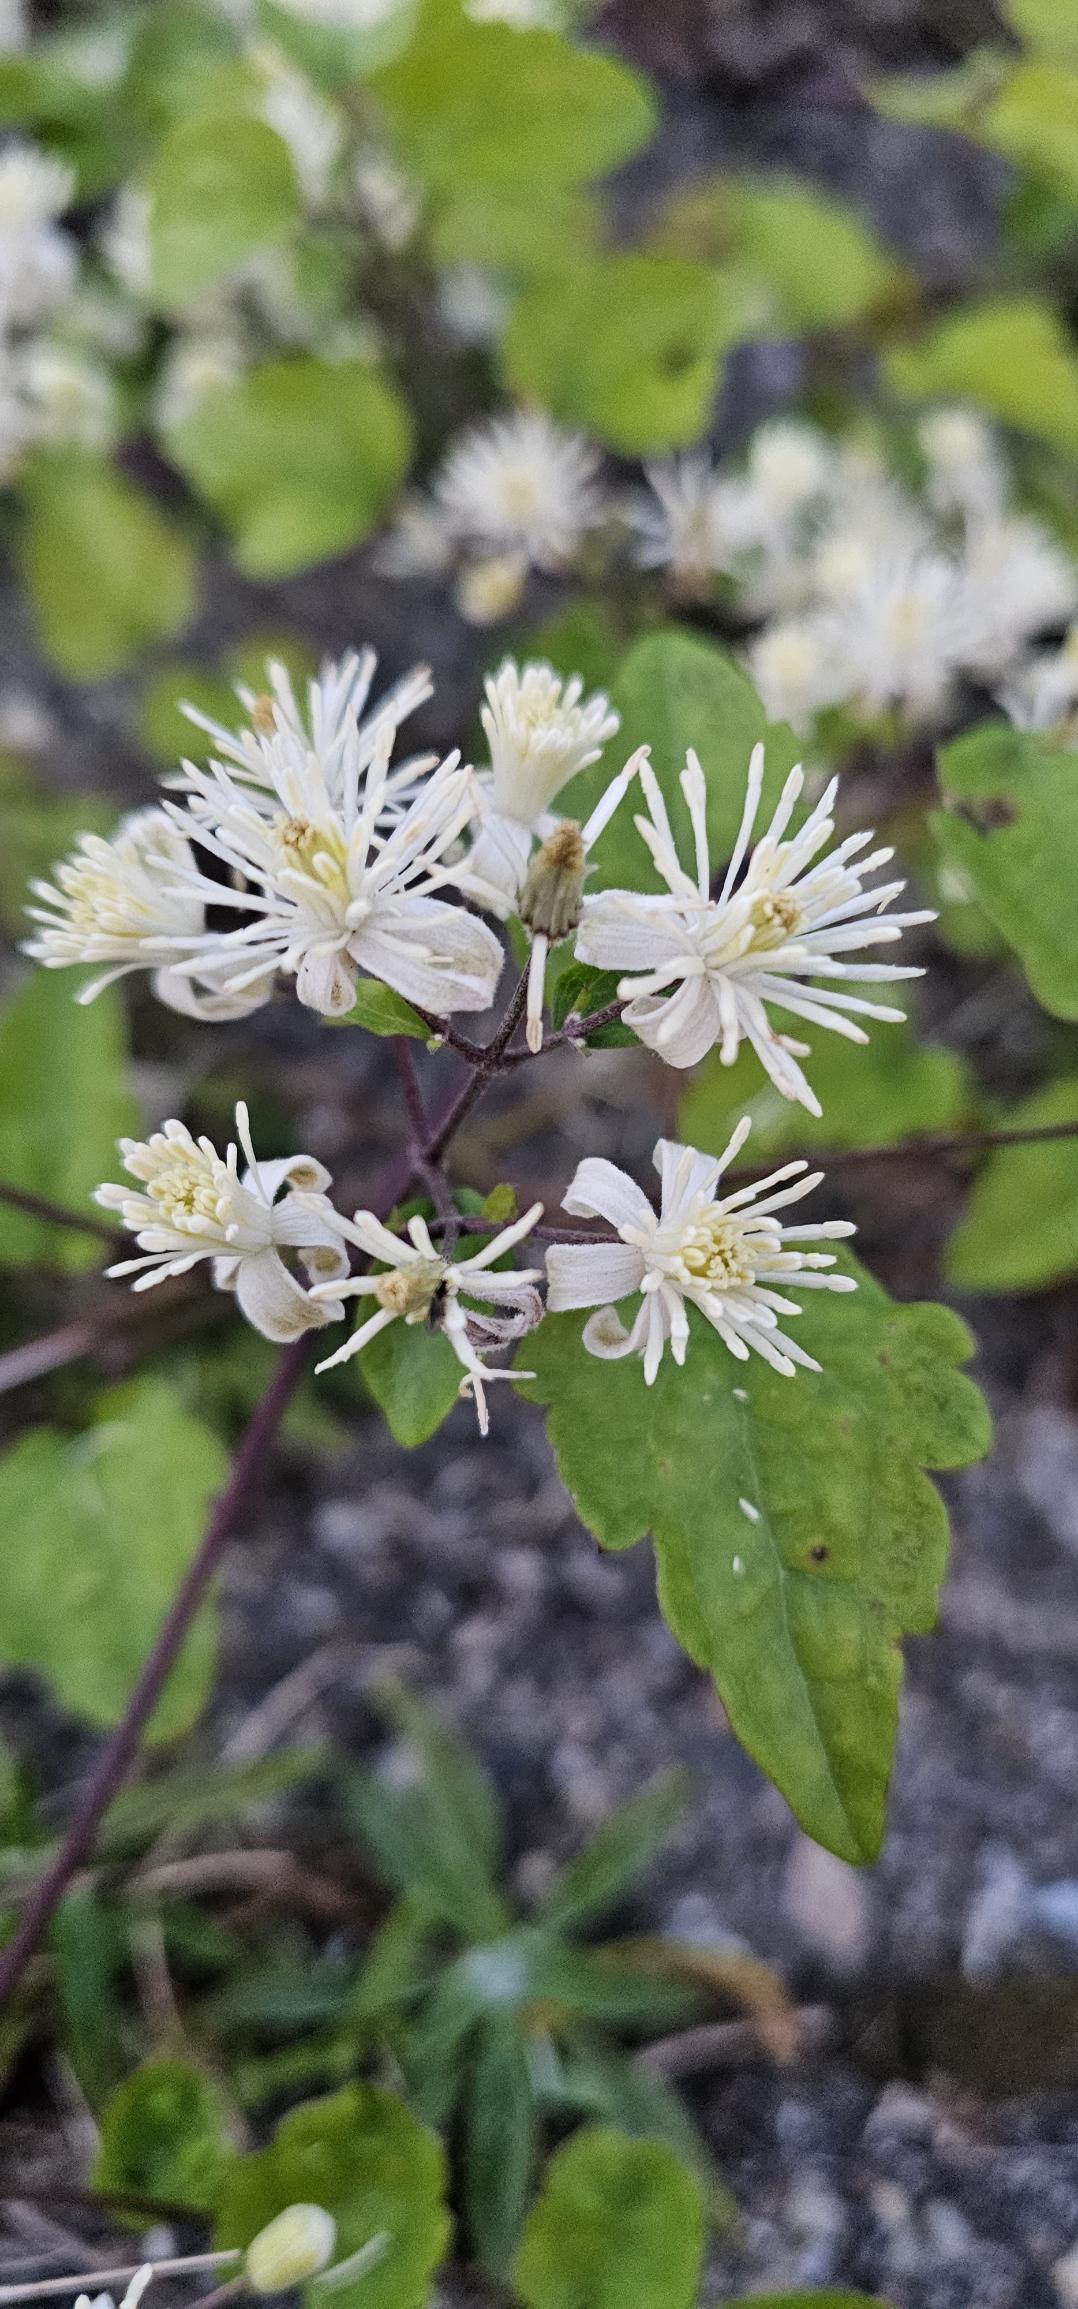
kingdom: Plantae
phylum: Tracheophyta
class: Magnoliopsida
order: Ranunculales
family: Ranunculaceae
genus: Clematis
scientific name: Clematis vitalba
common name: Skovranke
